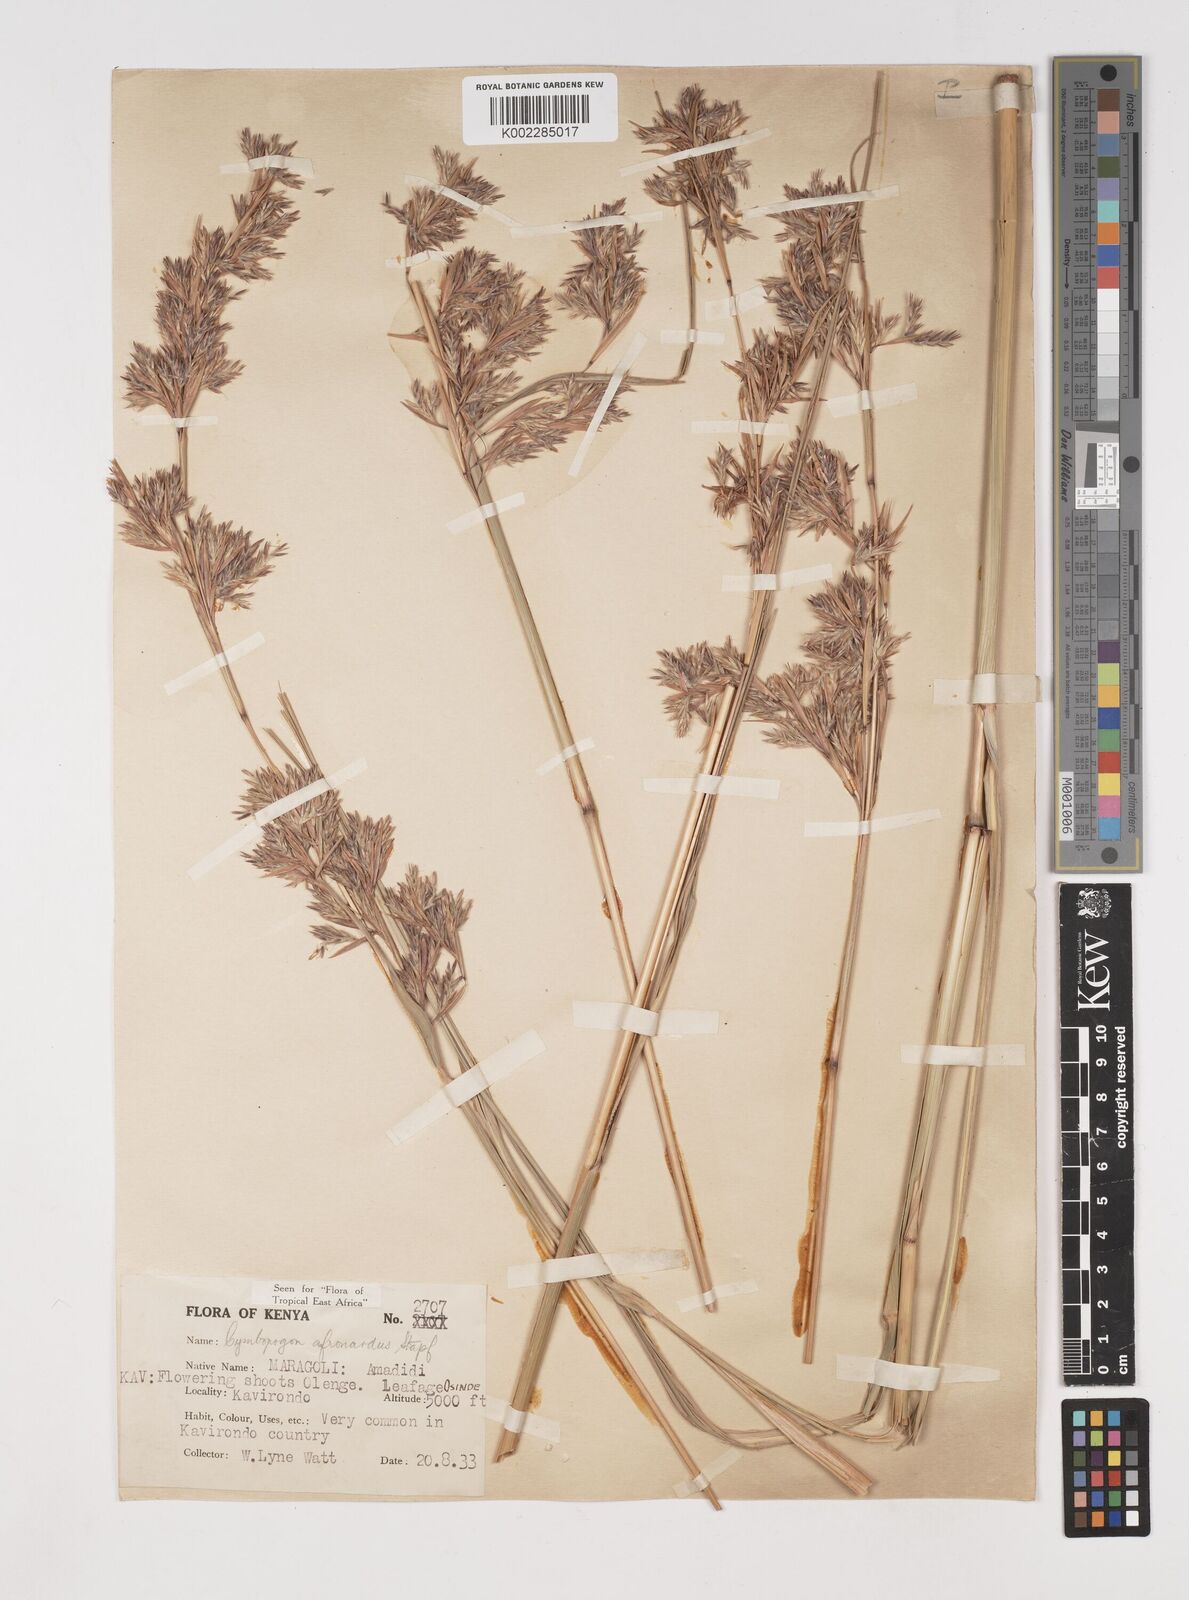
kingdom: Plantae
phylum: Tracheophyta
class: Liliopsida
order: Poales
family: Poaceae
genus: Cymbopogon
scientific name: Cymbopogon nardus
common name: Giant turpentine grass
